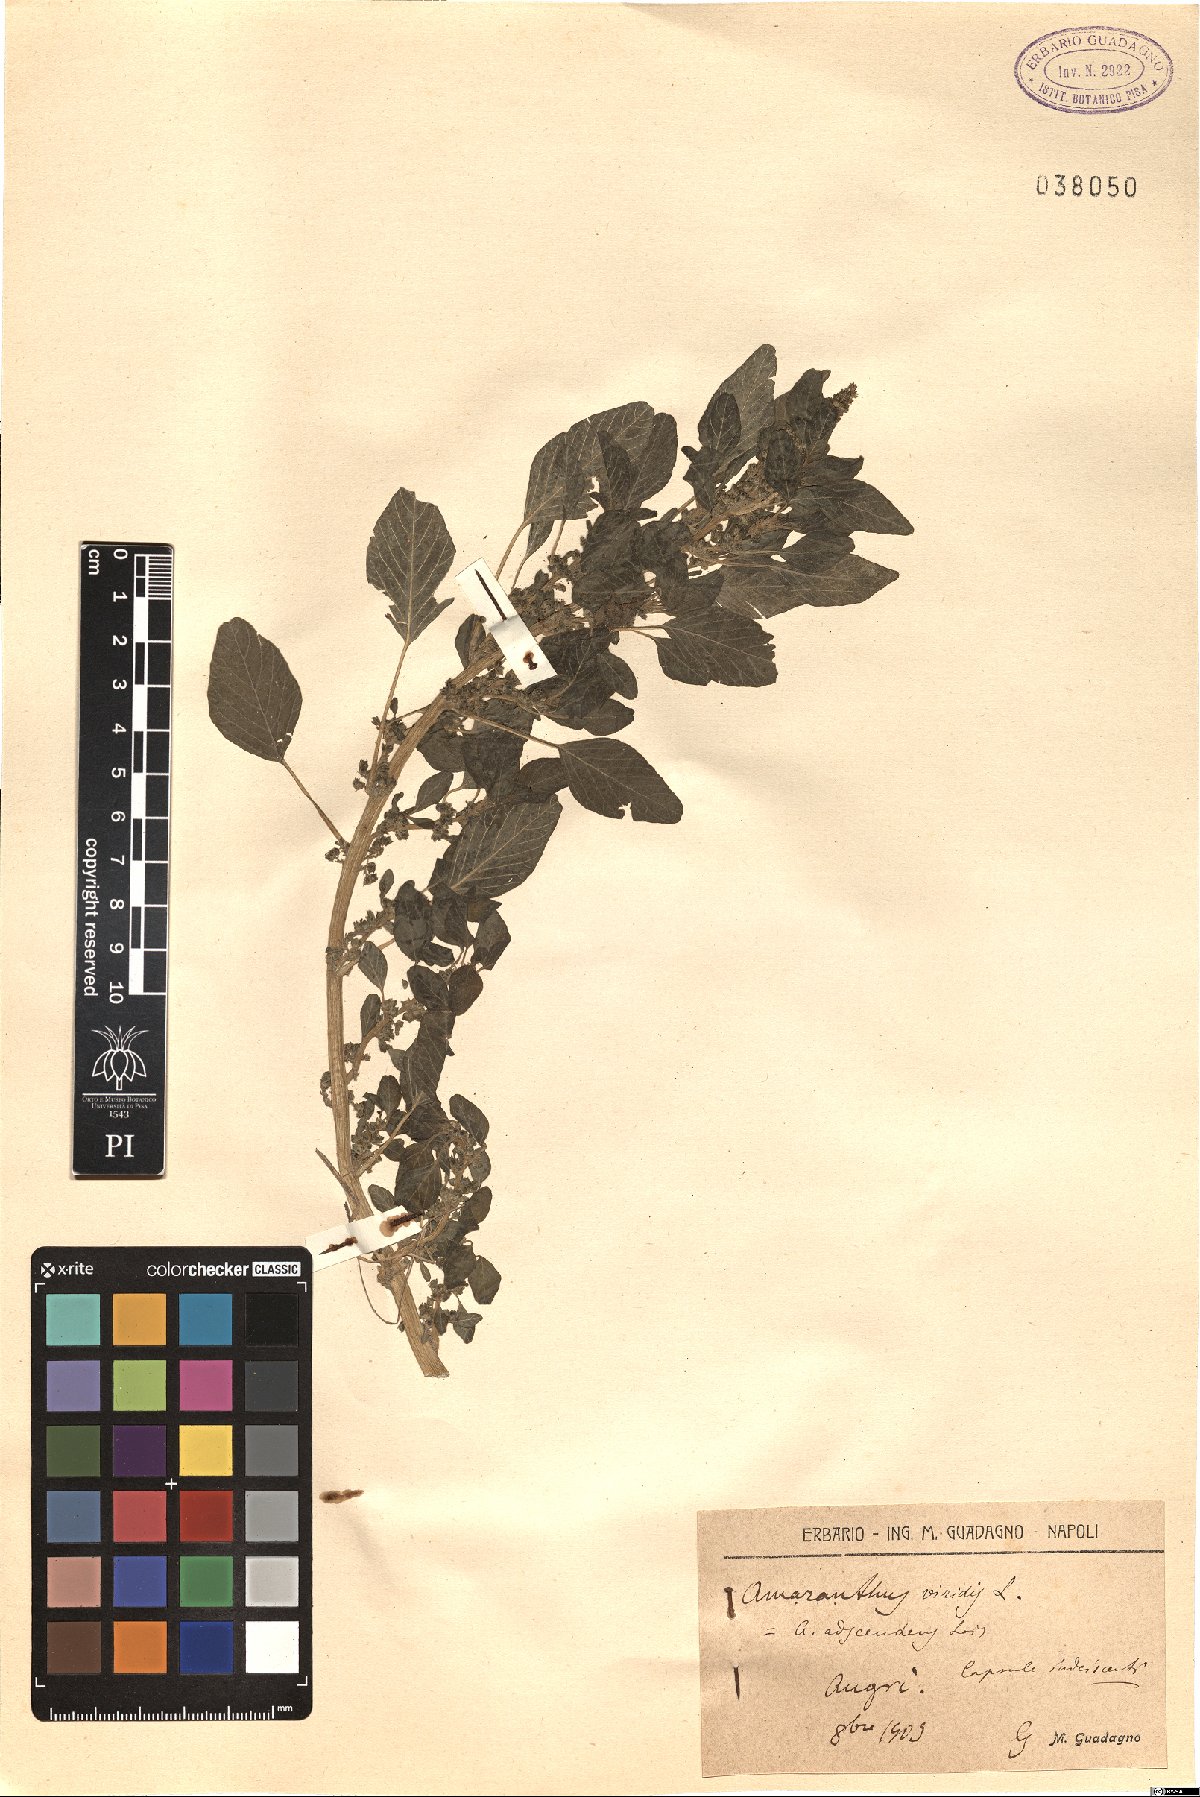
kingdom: Plantae
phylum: Tracheophyta
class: Magnoliopsida
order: Caryophyllales
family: Amaranthaceae
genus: Amaranthus
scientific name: Amaranthus viridis
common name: Slender amaranth
